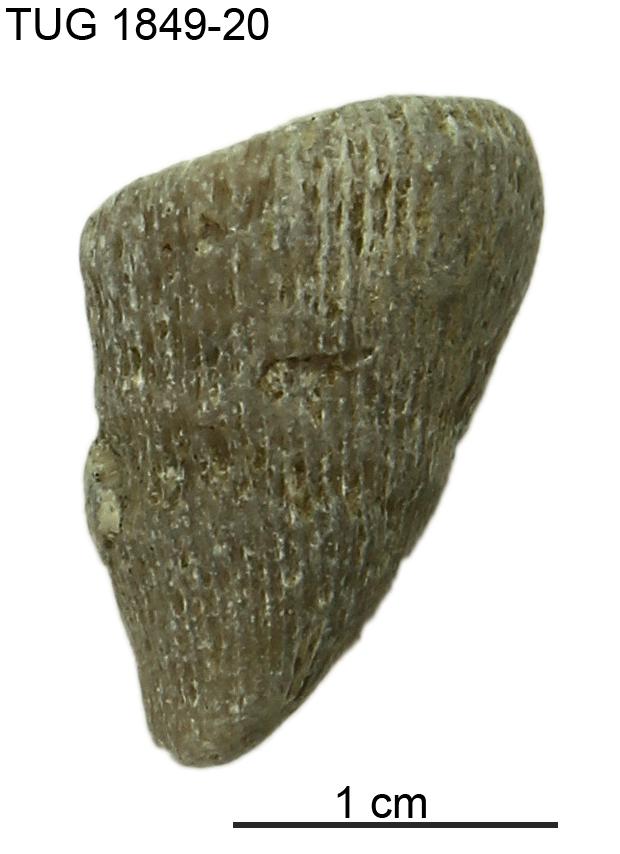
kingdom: Animalia
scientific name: Animalia
